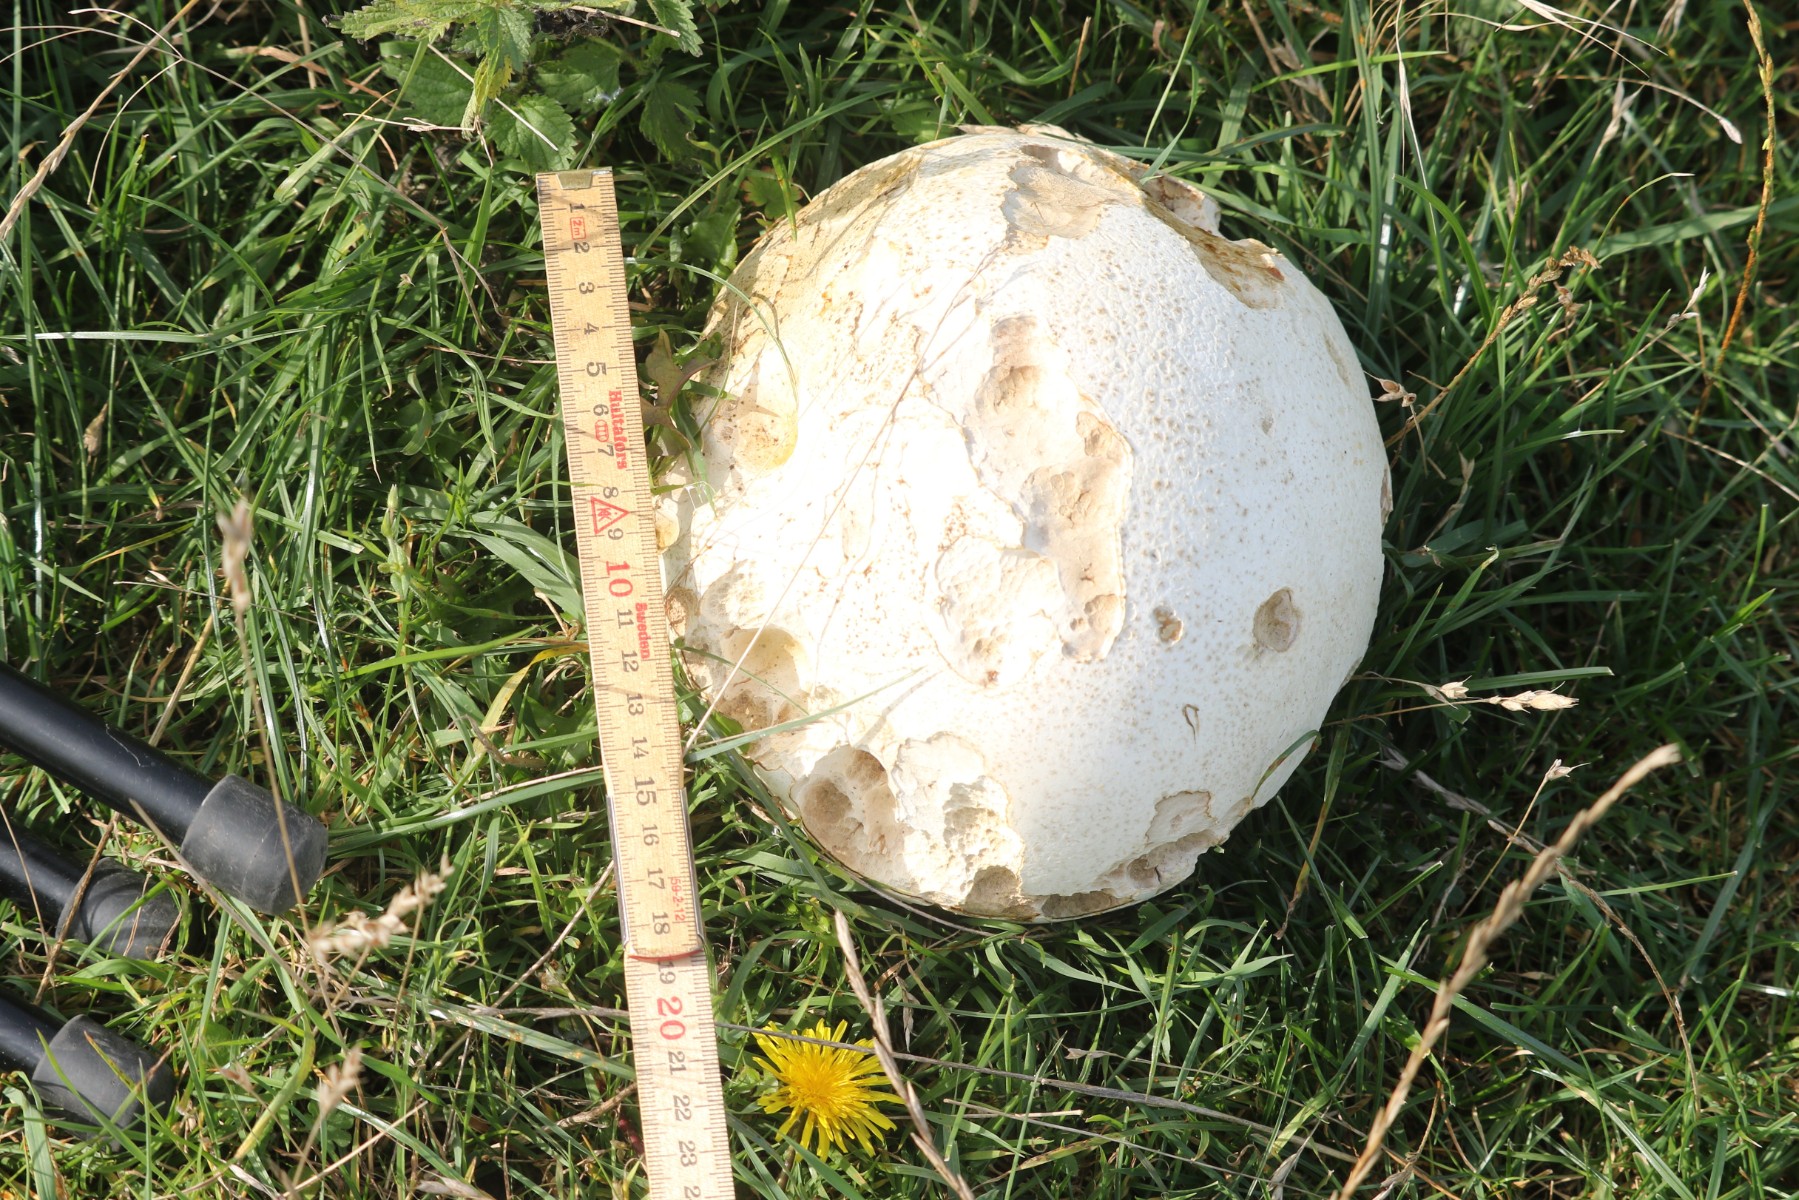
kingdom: Fungi
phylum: Basidiomycota
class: Agaricomycetes
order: Agaricales
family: Lycoperdaceae
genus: Calvatia
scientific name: Calvatia gigantea
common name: kæmpestøvbold
